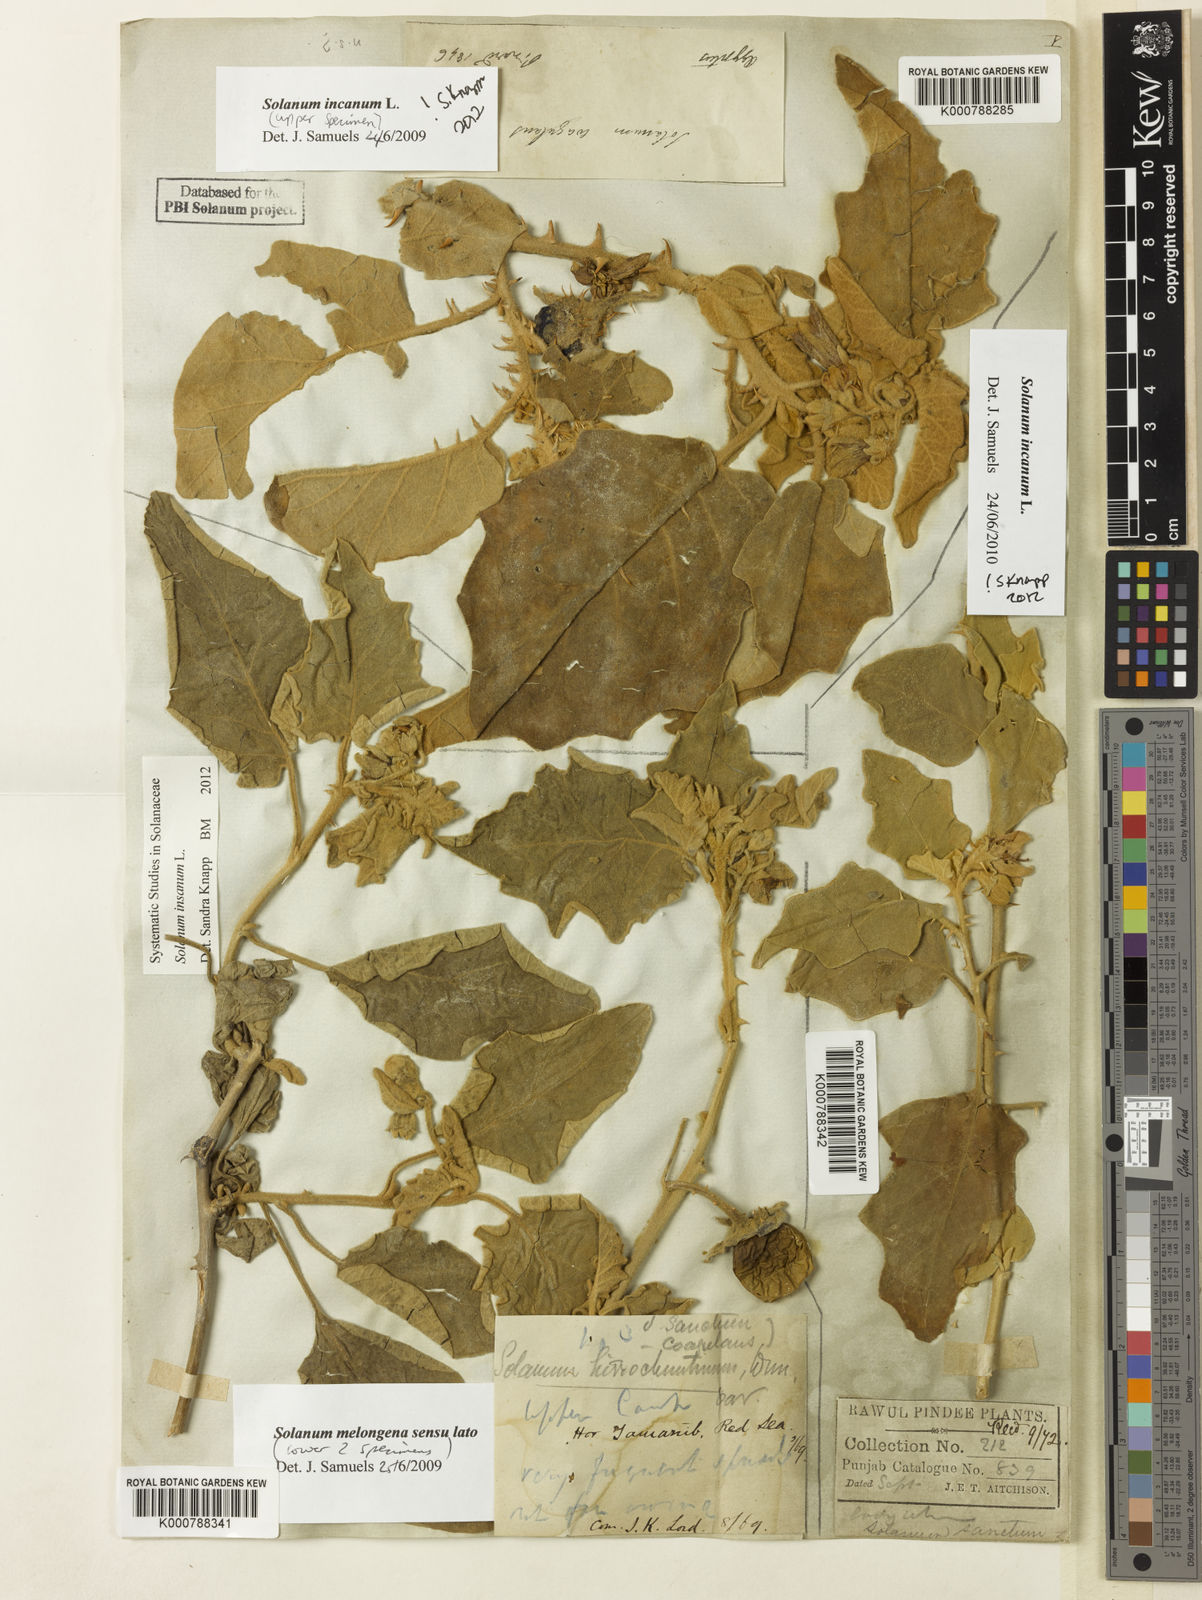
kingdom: Plantae
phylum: Tracheophyta
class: Magnoliopsida
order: Solanales
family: Solanaceae
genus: Solanum
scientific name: Solanum incanum
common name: Bitter apple
